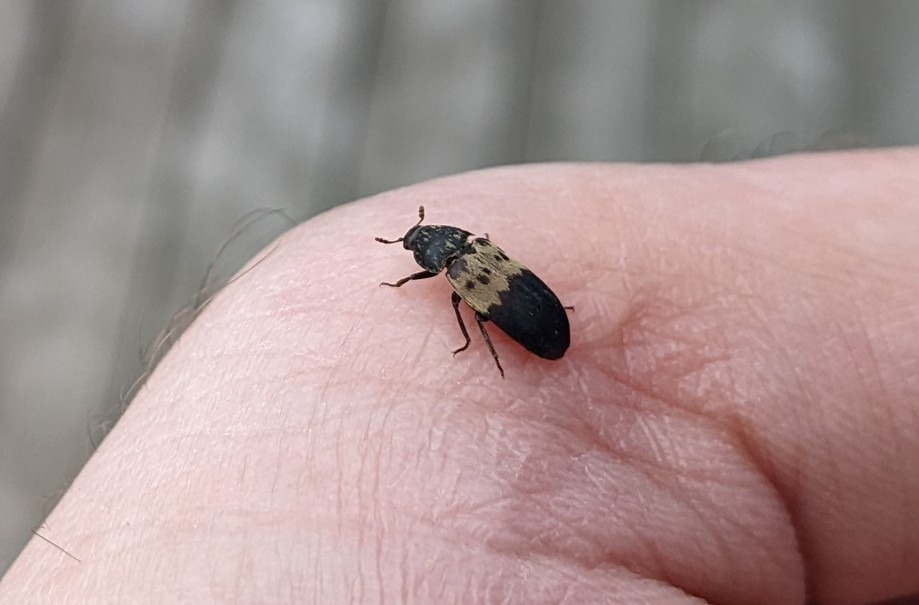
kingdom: Animalia
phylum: Arthropoda
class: Insecta
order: Coleoptera
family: Dermestidae
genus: Dermestes
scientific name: Dermestes lardarius
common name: Flæskeklanner
